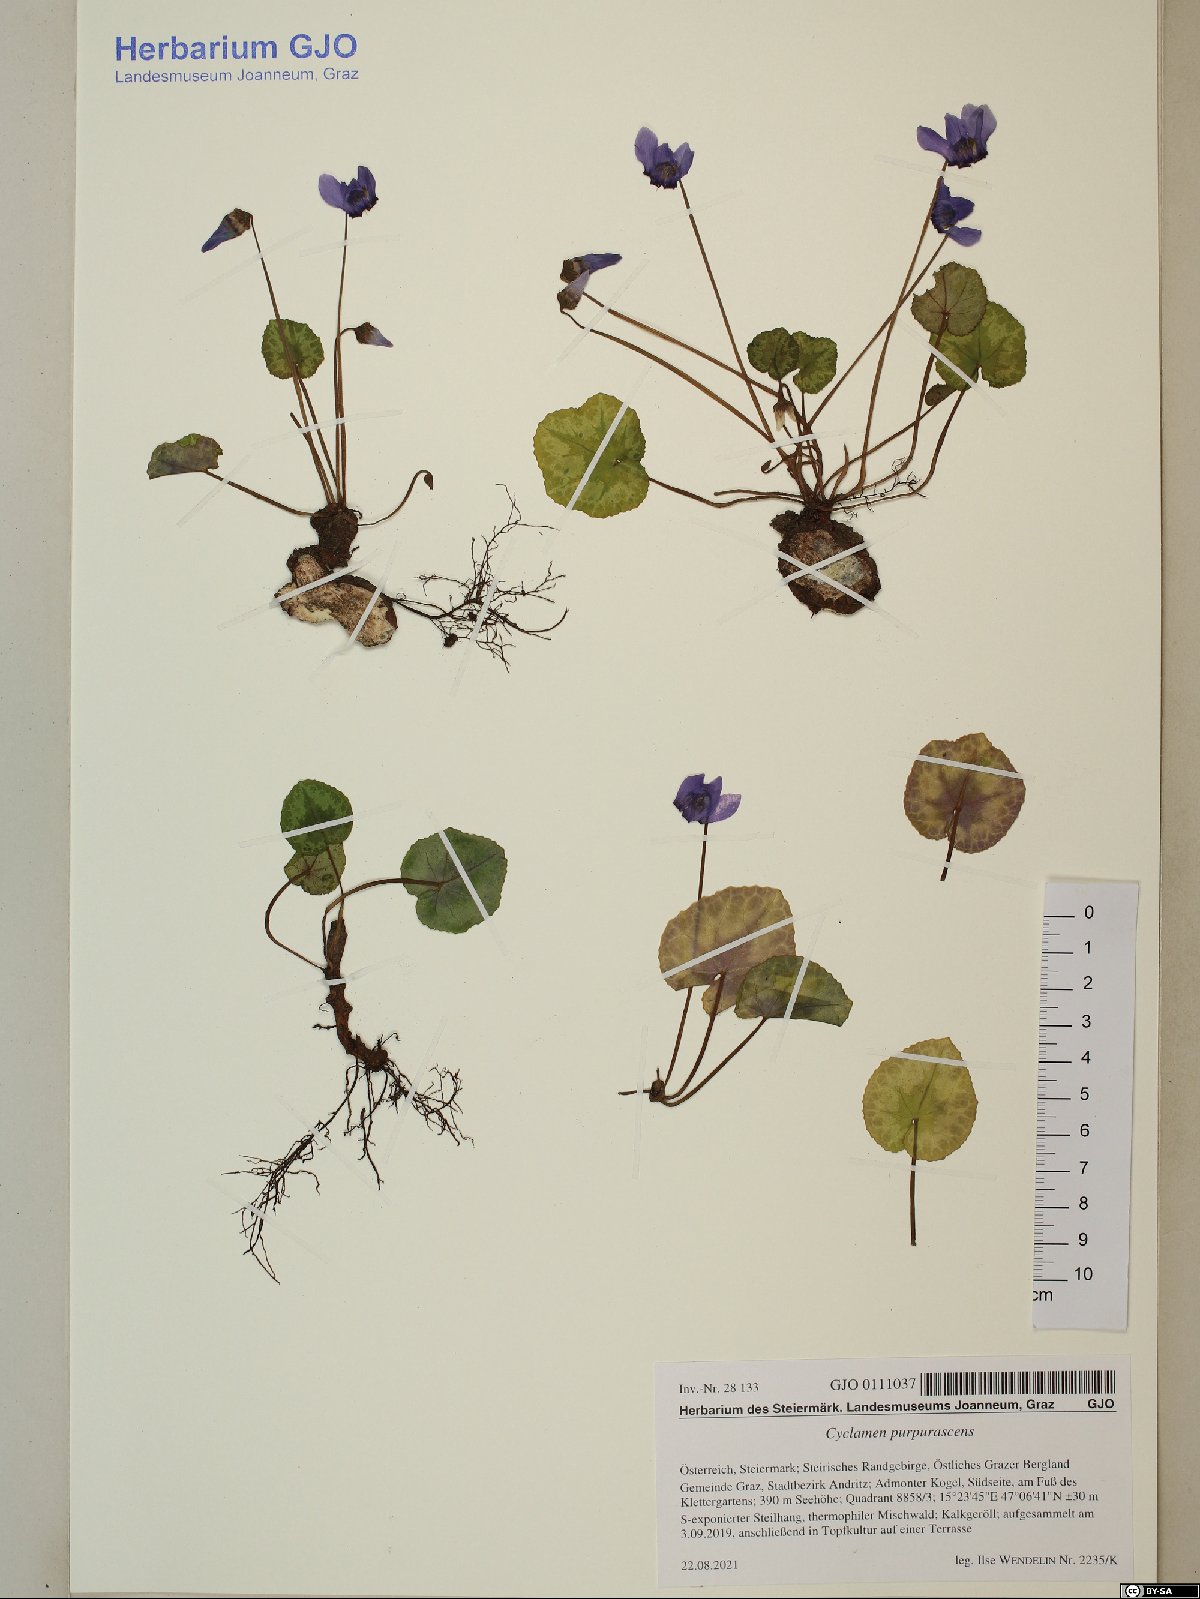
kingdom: Plantae
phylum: Tracheophyta
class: Magnoliopsida
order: Ericales
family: Primulaceae
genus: Cyclamen
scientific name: Cyclamen purpurascens
